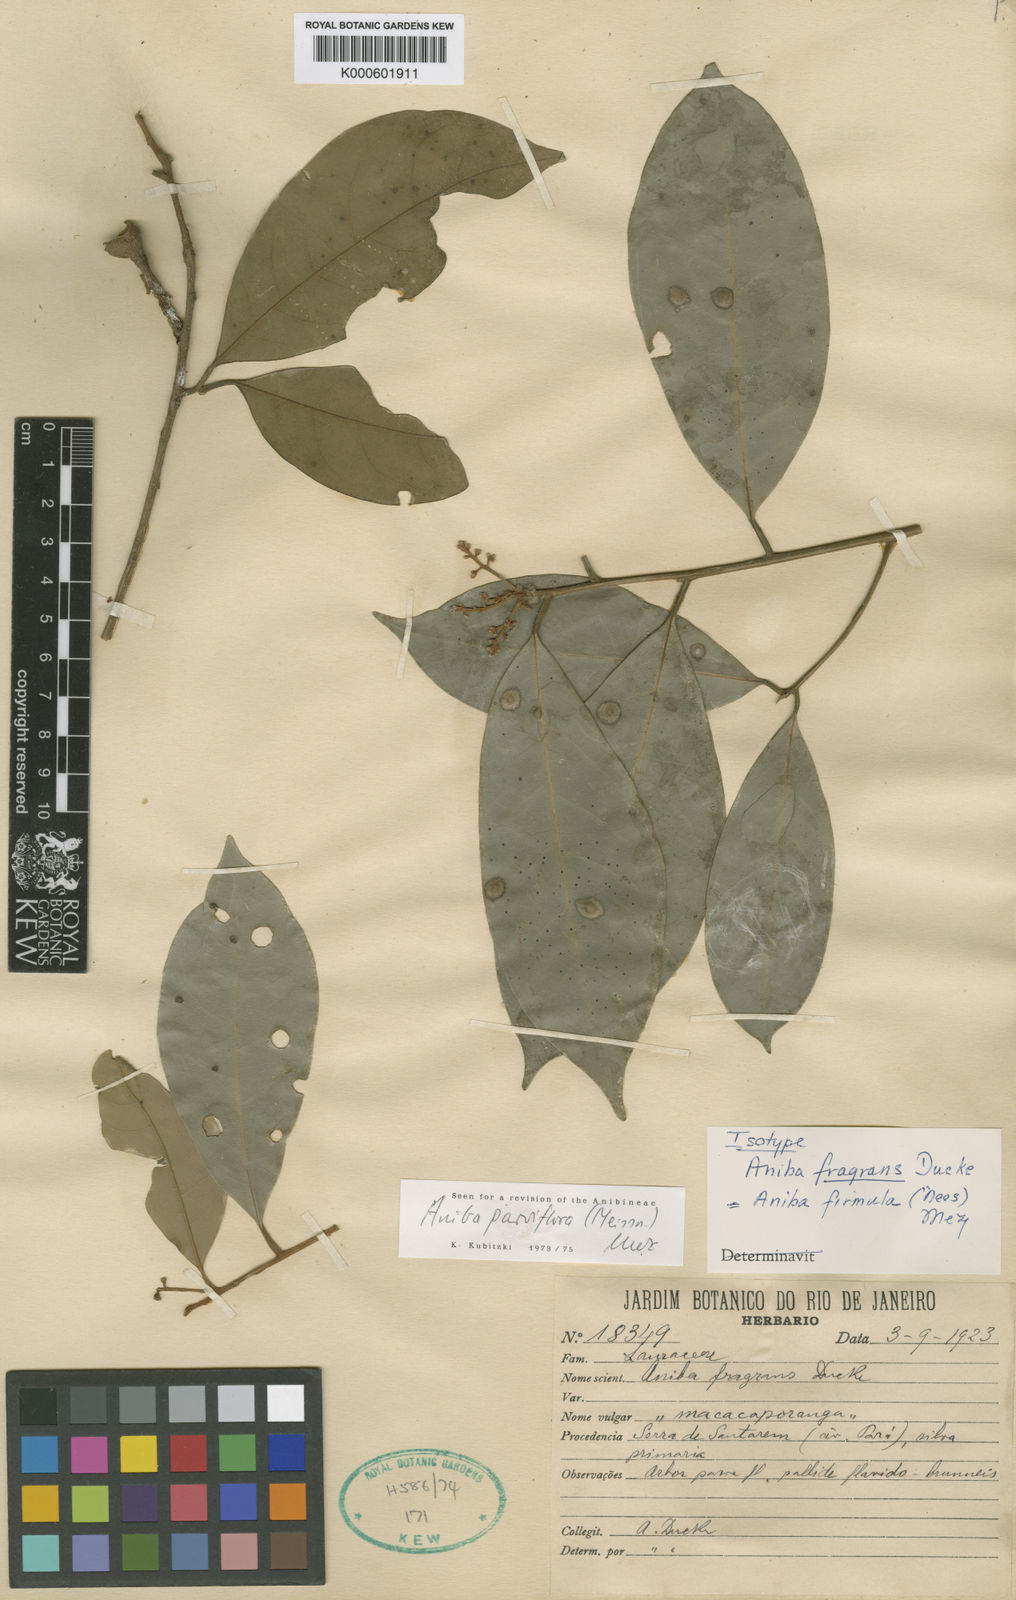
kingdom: Plantae
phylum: Tracheophyta
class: Magnoliopsida
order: Laurales
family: Lauraceae
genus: Aniba
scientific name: Aniba parviflora
